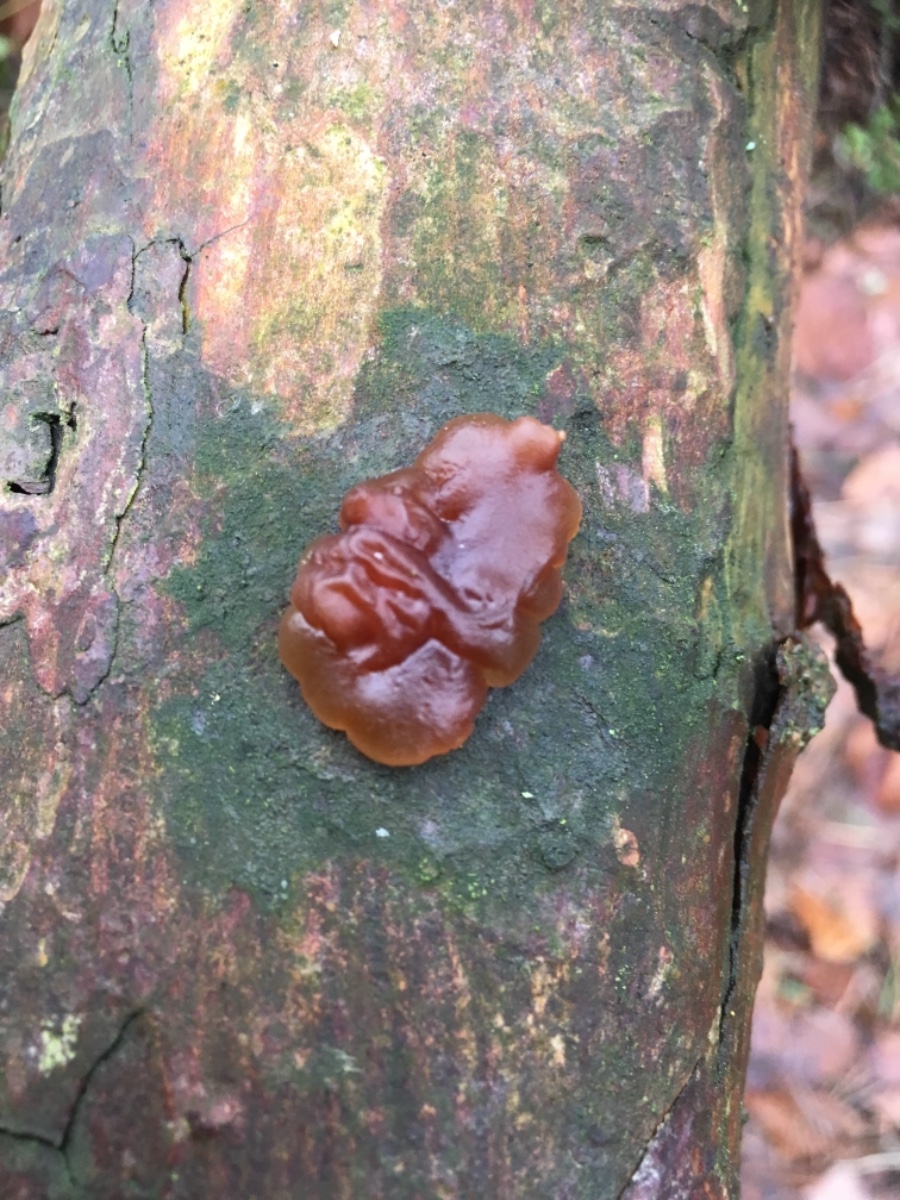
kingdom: Fungi
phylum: Basidiomycota
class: Agaricomycetes
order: Auriculariales
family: Auriculariaceae
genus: Exidia
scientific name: Exidia saccharina
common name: kandis-bævretop
